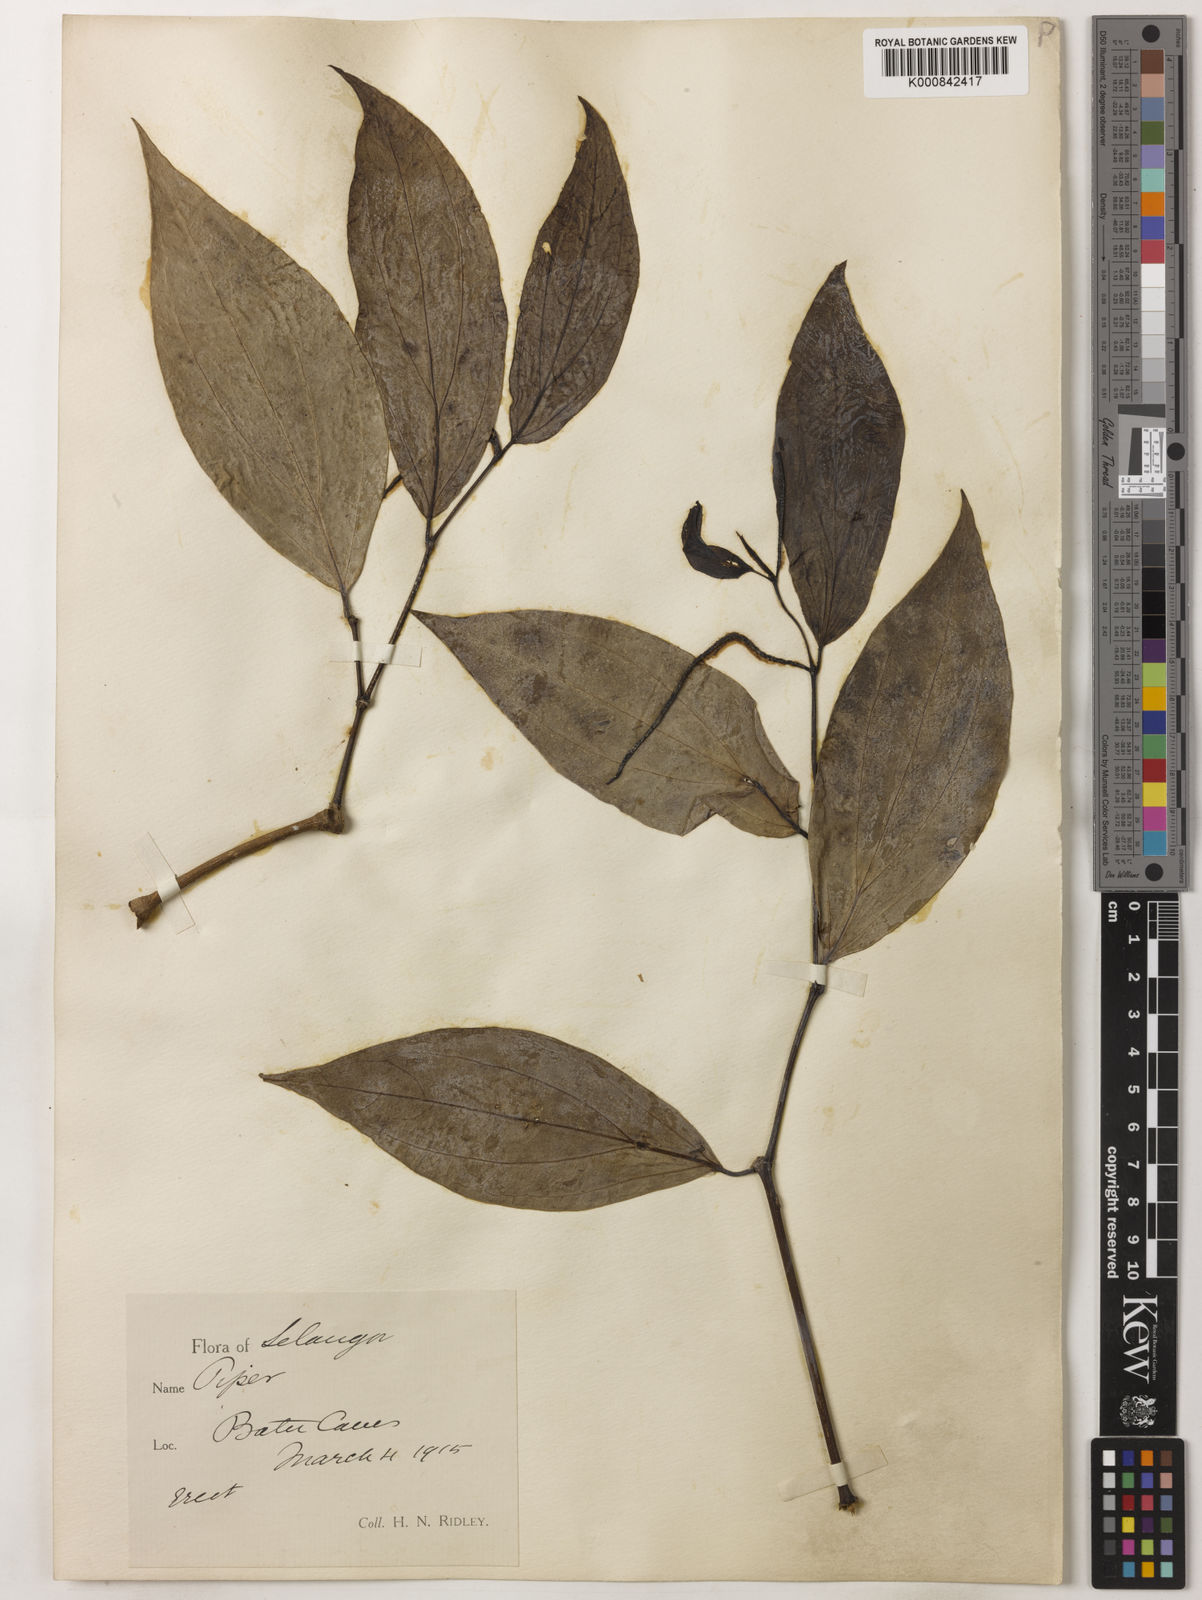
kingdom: Plantae
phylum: Tracheophyta
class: Magnoliopsida
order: Piperales
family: Piperaceae
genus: Piper
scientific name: Piper kurzii
